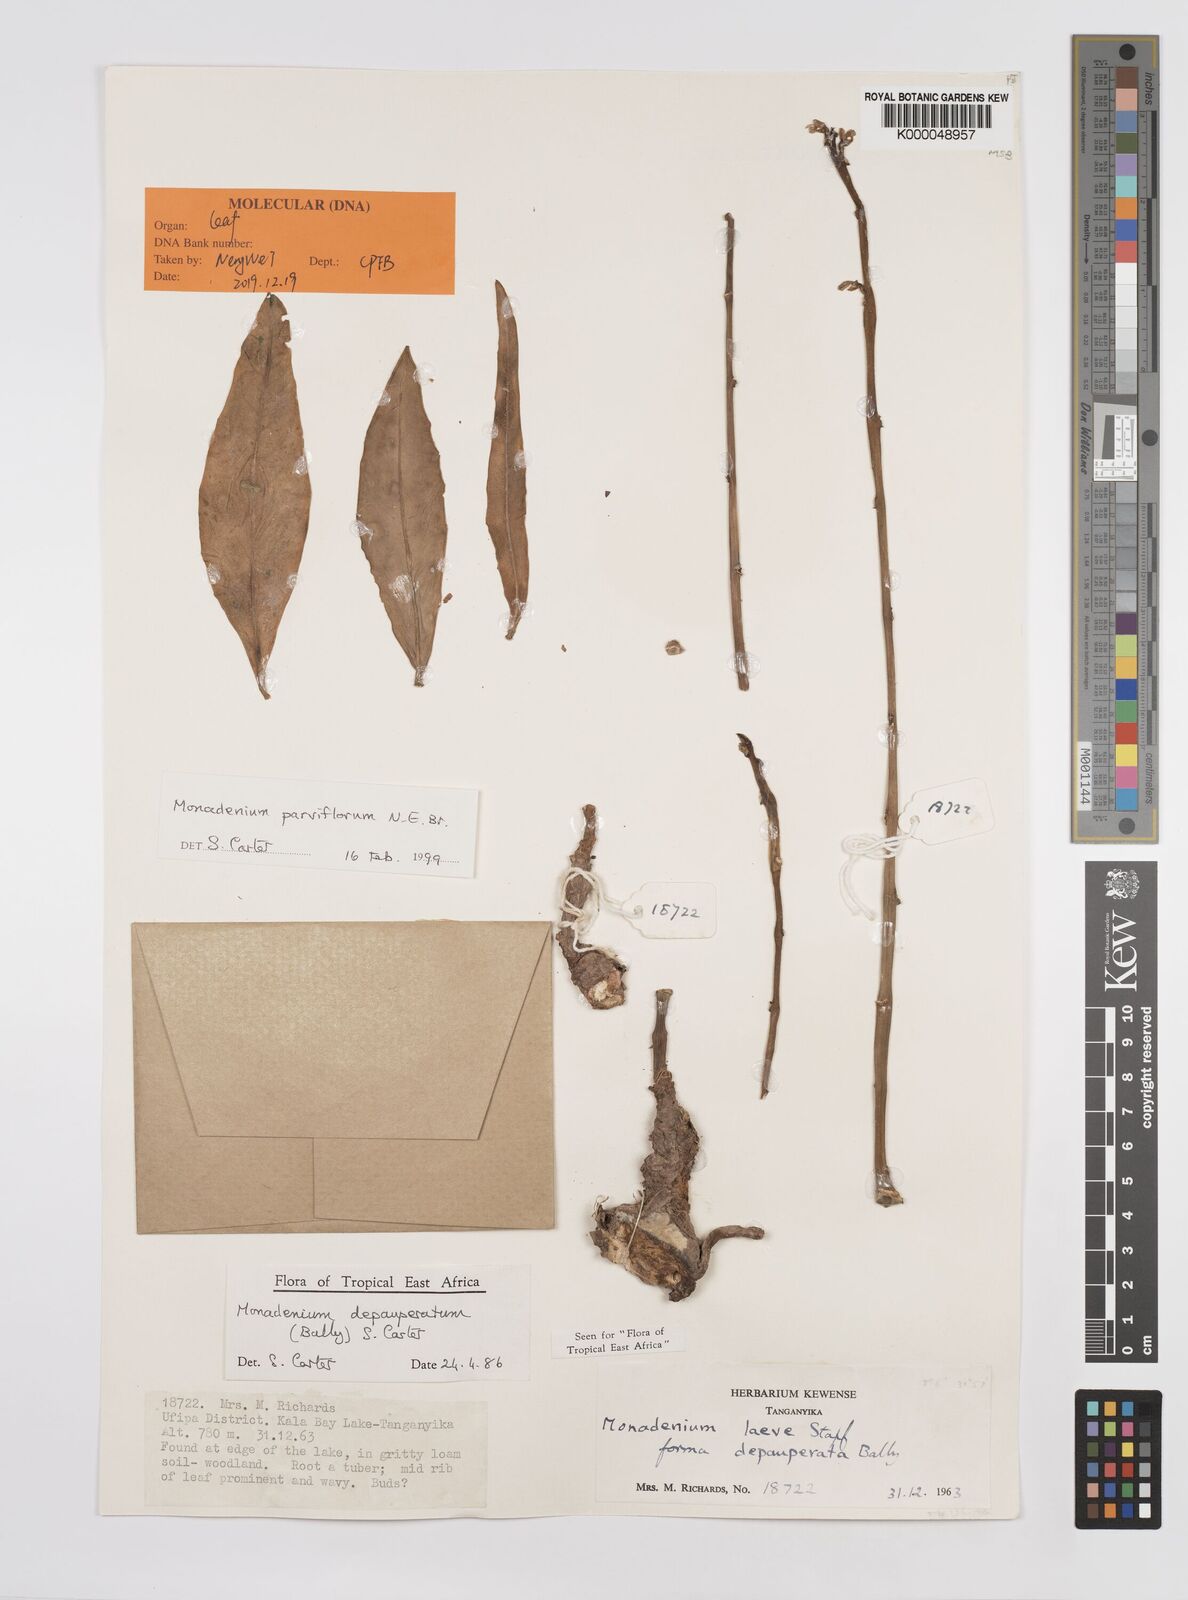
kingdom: Plantae
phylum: Tracheophyta
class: Magnoliopsida
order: Malpighiales
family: Euphorbiaceae
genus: Euphorbia
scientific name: Euphorbia neoparviflora
